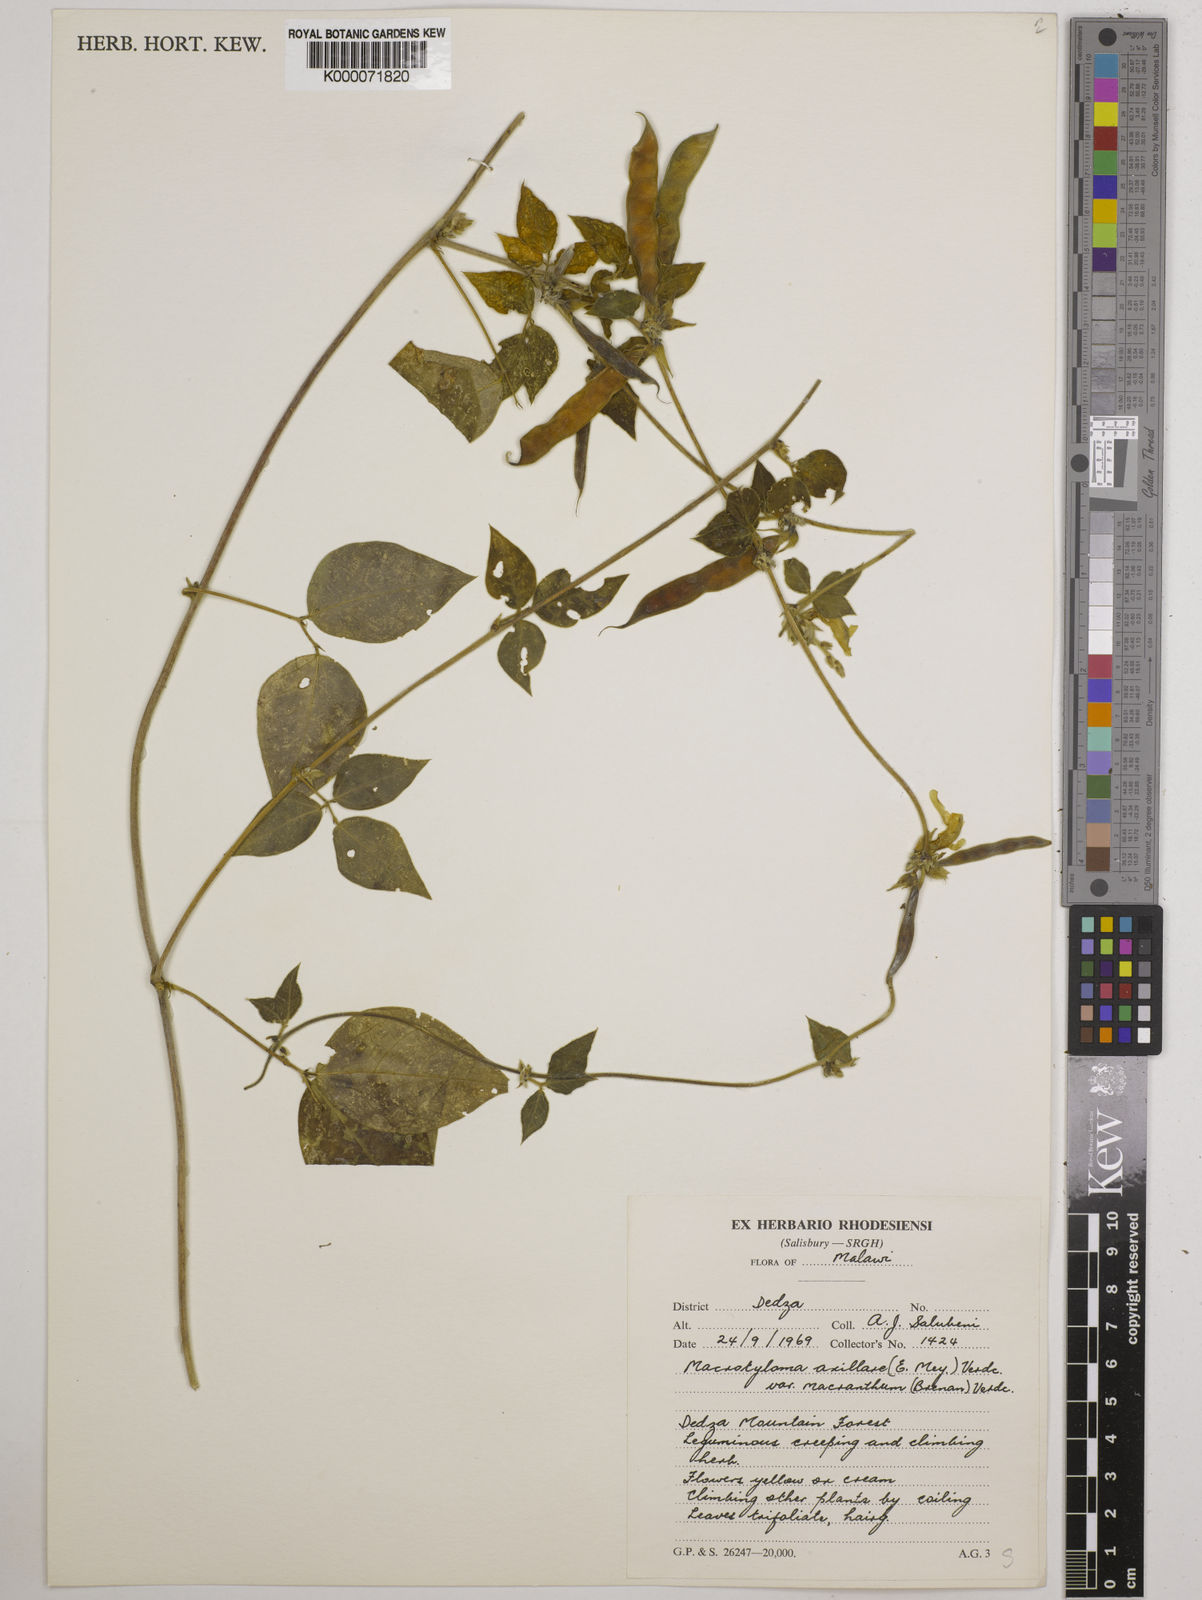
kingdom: Plantae
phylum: Tracheophyta
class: Magnoliopsida
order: Fabales
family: Fabaceae
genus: Macrotyloma
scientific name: Macrotyloma axillare
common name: Perennial horsegram
